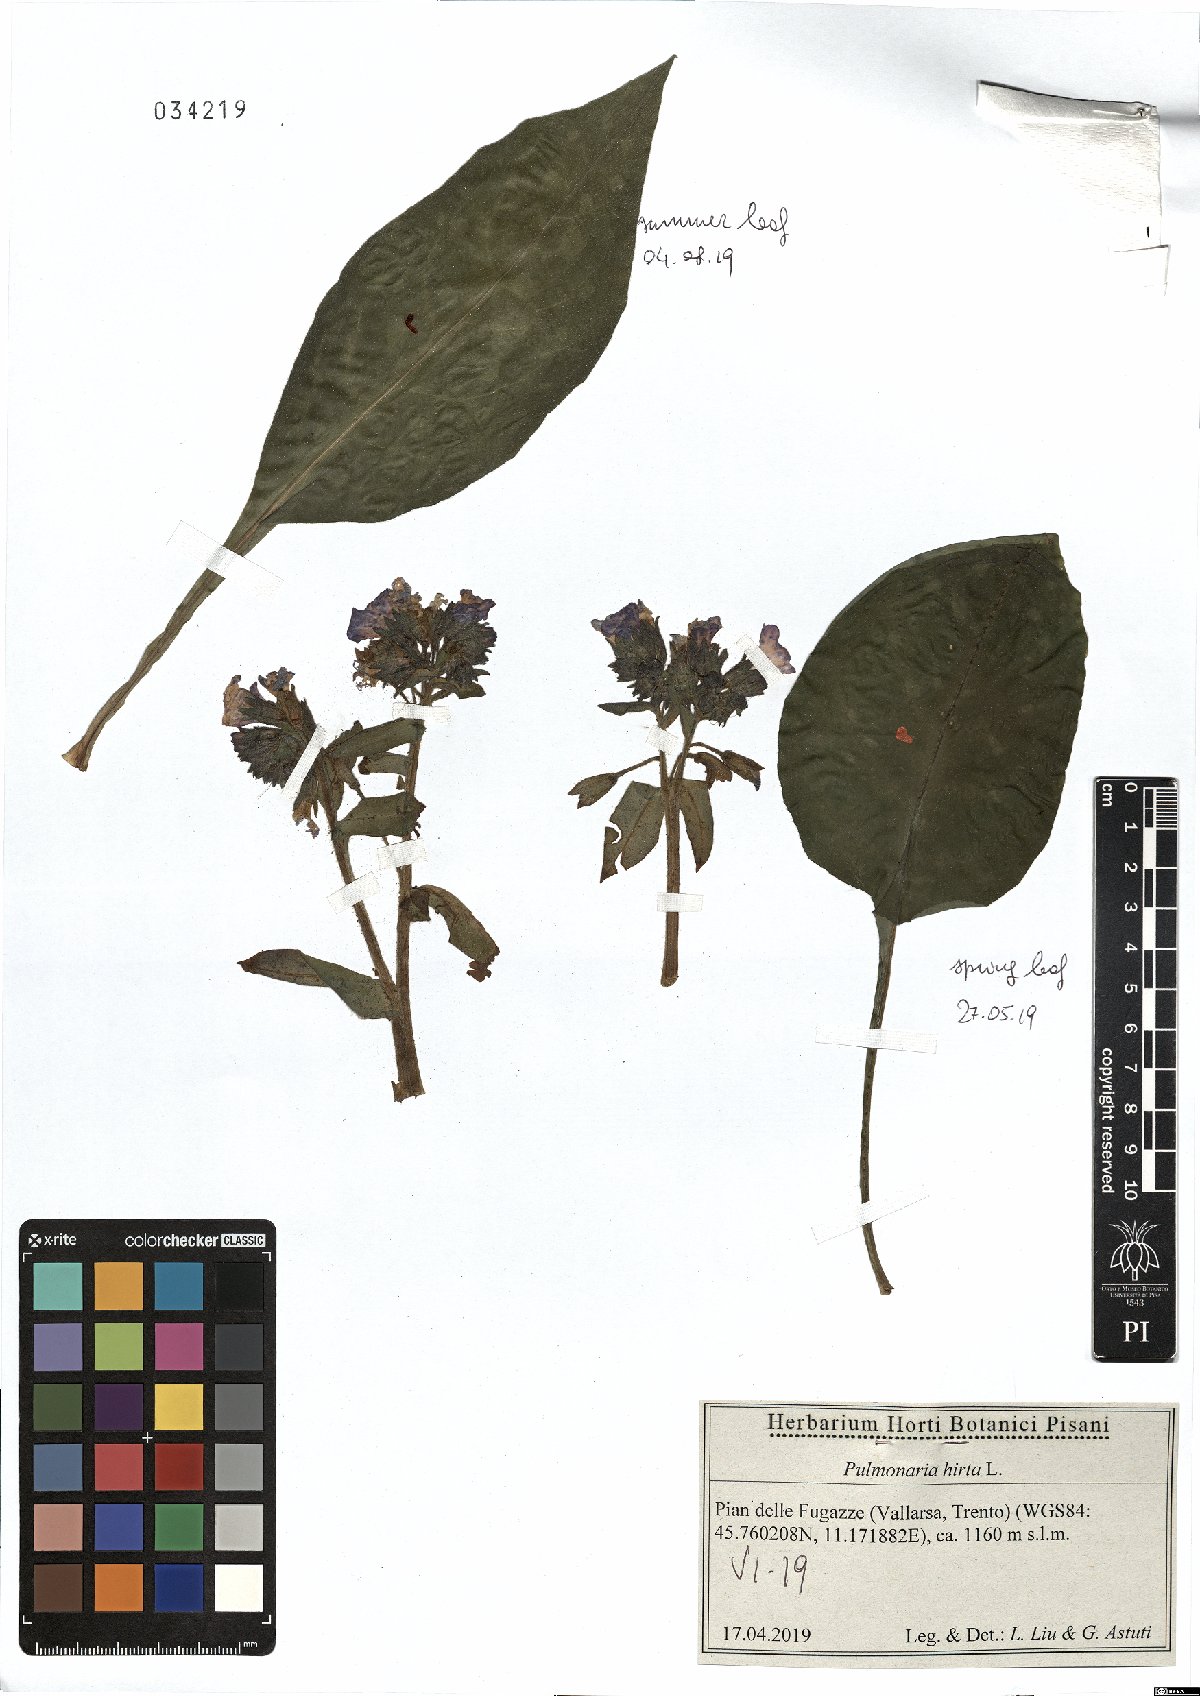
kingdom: Plantae
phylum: Tracheophyta
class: Magnoliopsida
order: Boraginales
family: Boraginaceae
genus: Pulmonaria
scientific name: Pulmonaria hirta
